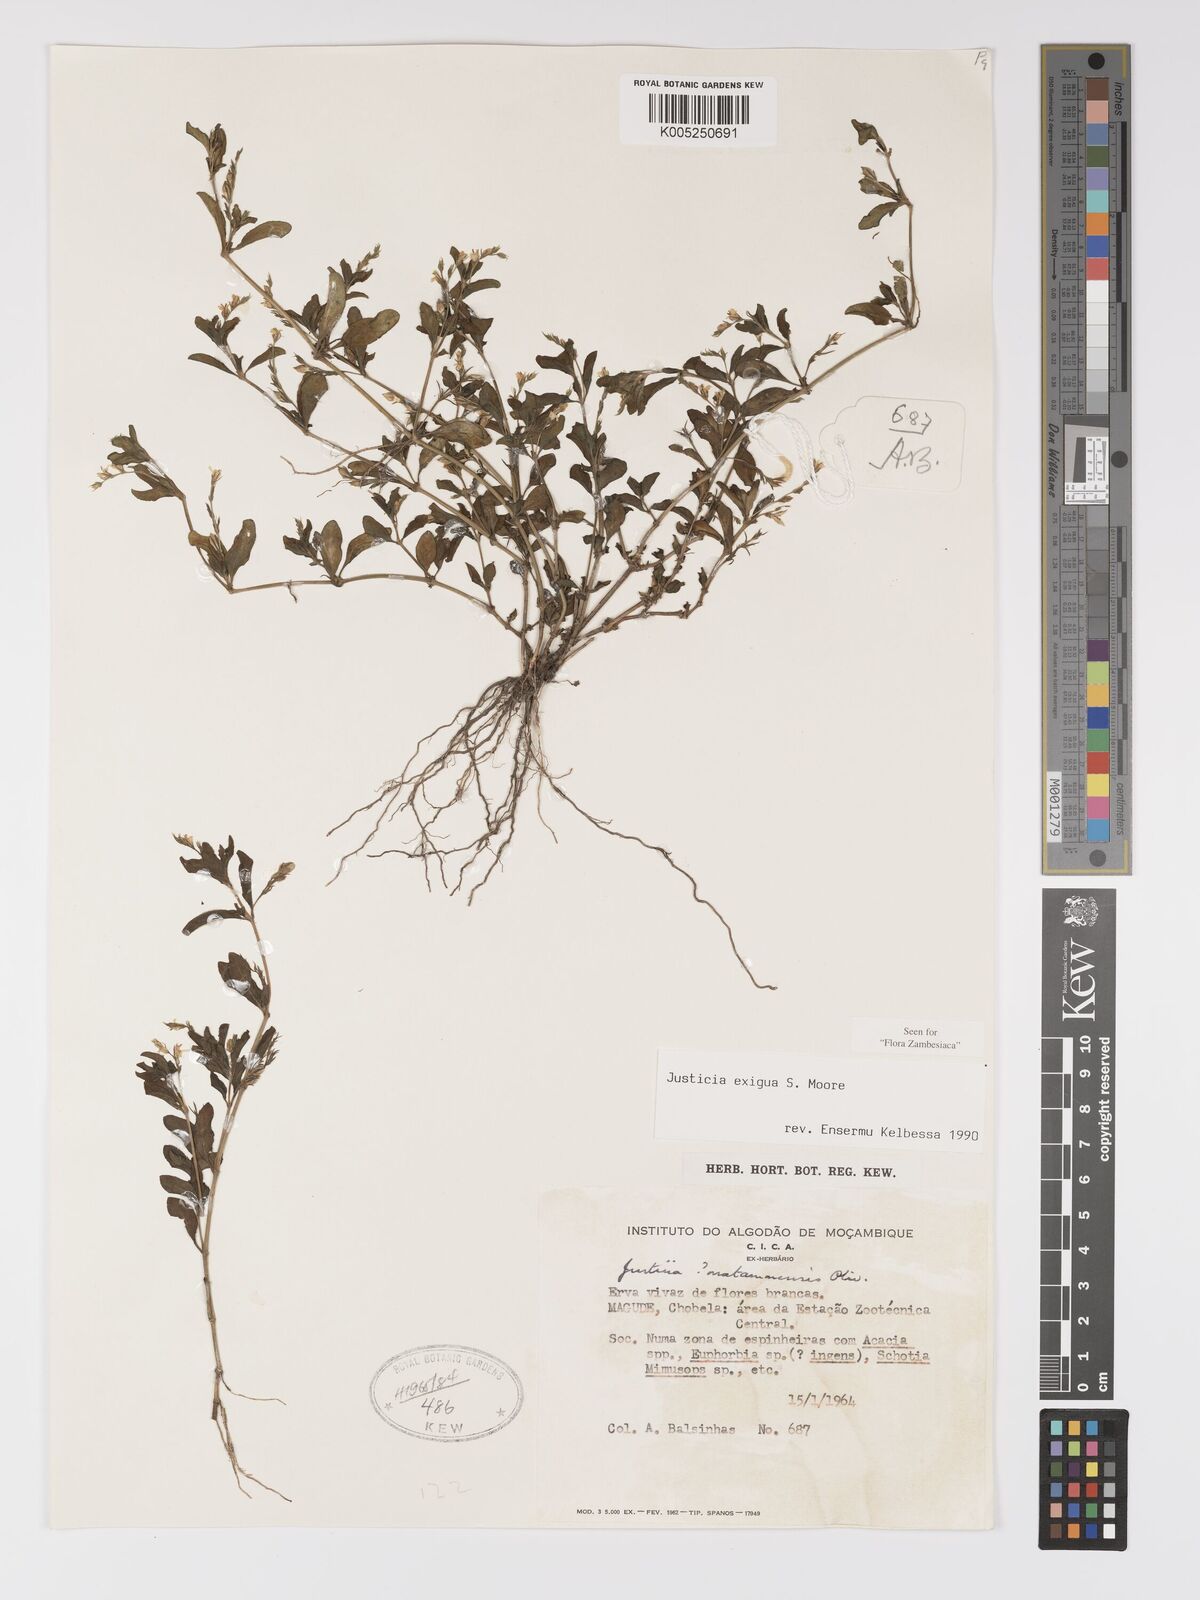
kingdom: Plantae
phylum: Tracheophyta
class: Magnoliopsida
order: Lamiales
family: Acanthaceae
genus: Justicia
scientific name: Justicia exigua
